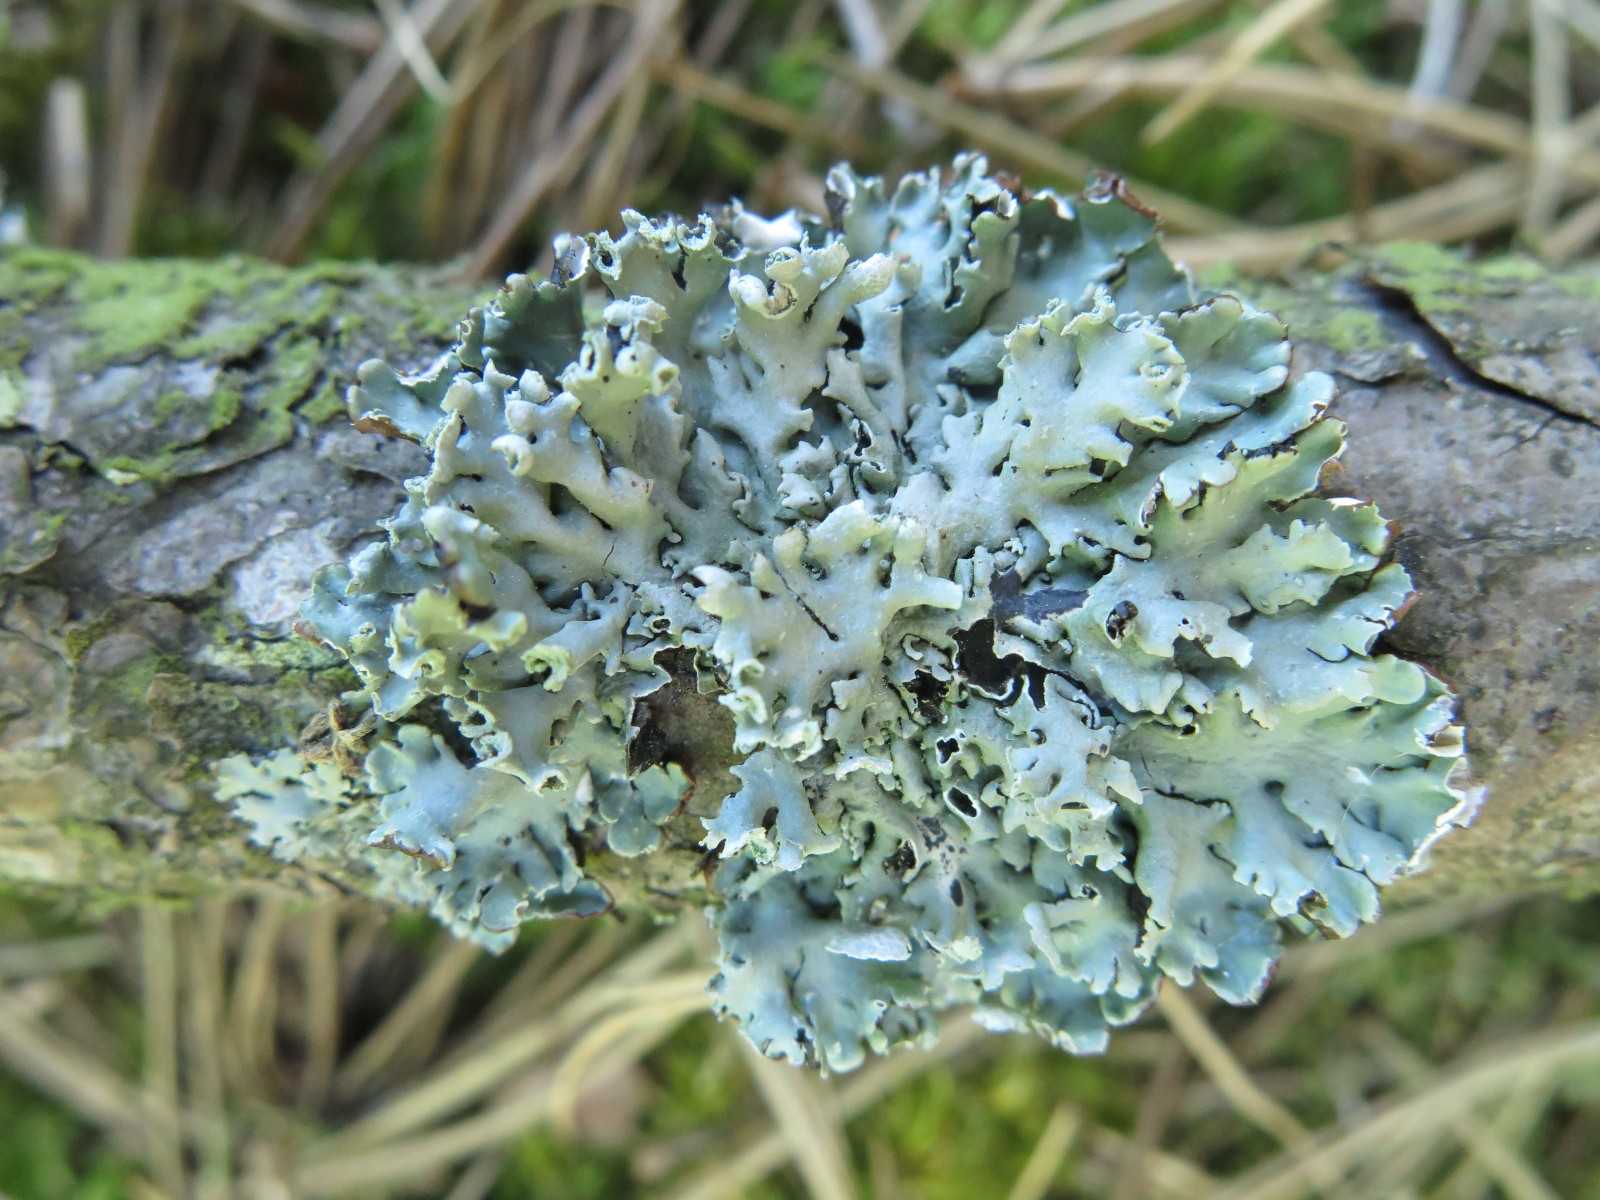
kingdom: Fungi
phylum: Ascomycota
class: Lecanoromycetes
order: Lecanorales
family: Parmeliaceae
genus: Hypogymnia
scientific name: Hypogymnia physodes
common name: almindelig kvistlav
